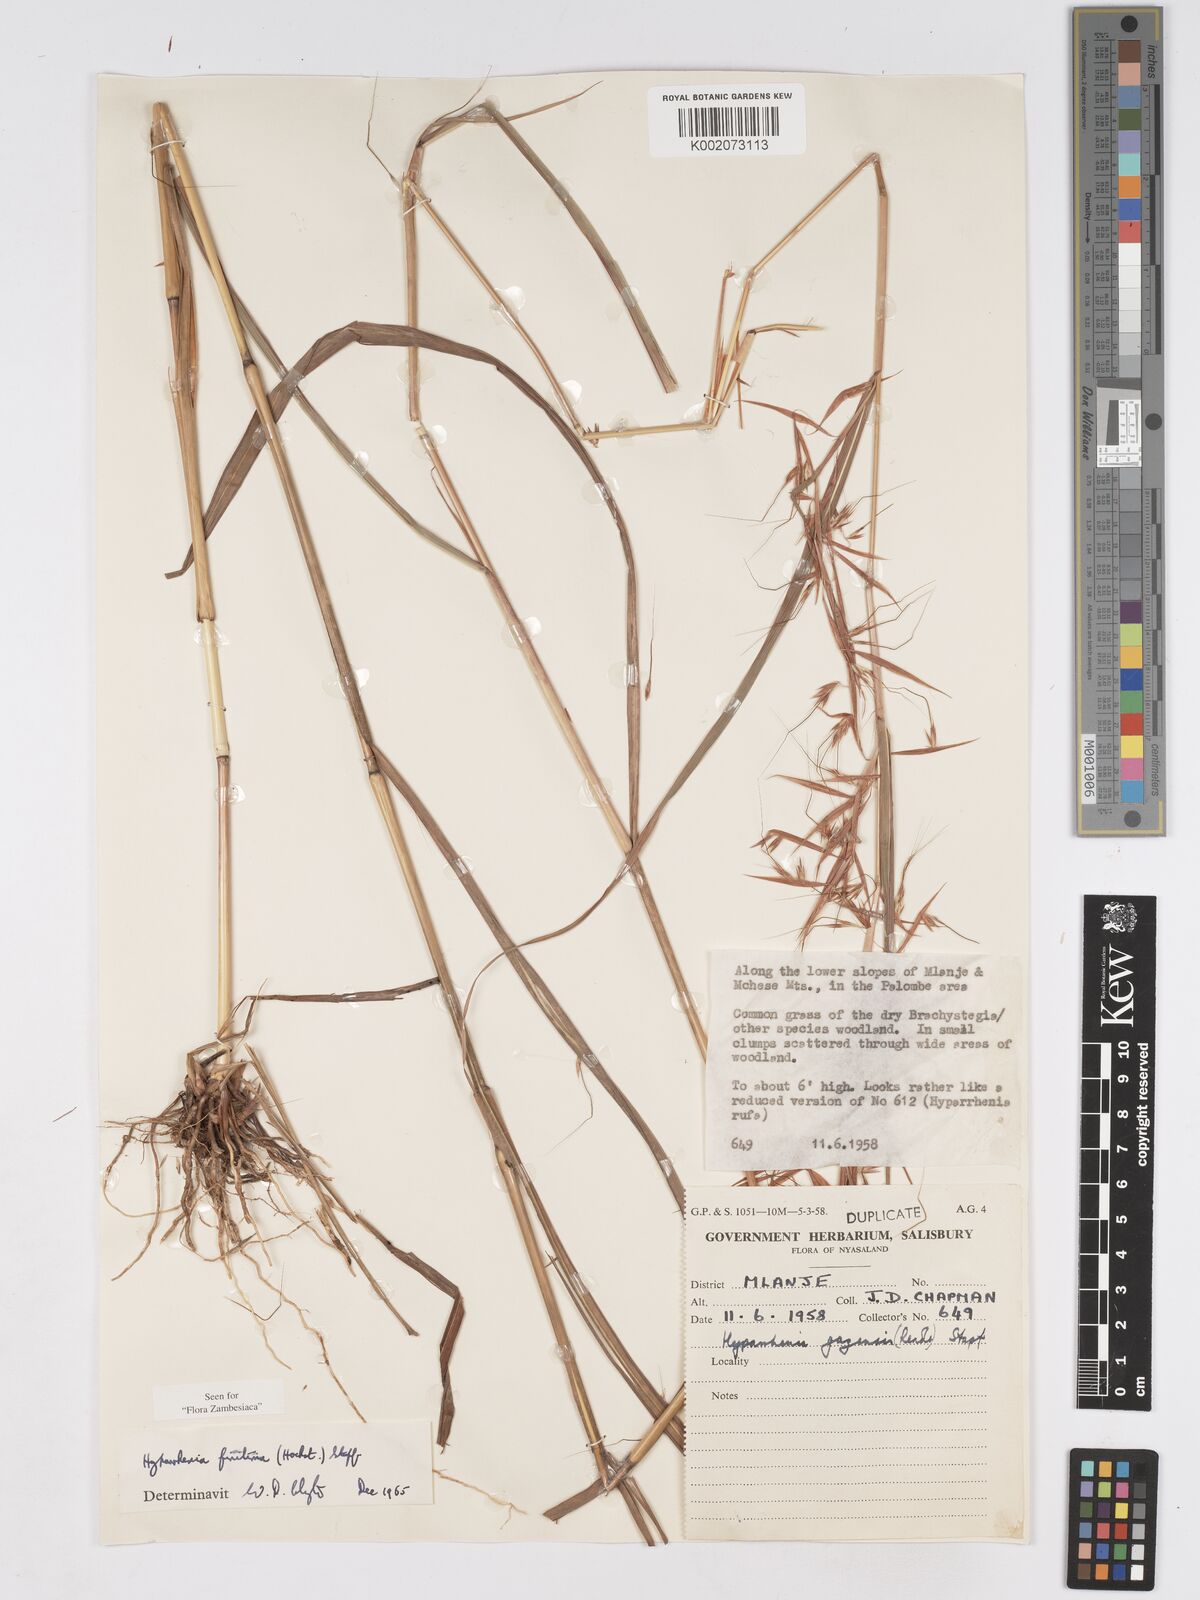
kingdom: Plantae
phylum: Tracheophyta
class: Liliopsida
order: Poales
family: Poaceae
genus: Hyparrhenia
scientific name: Hyparrhenia finitima
